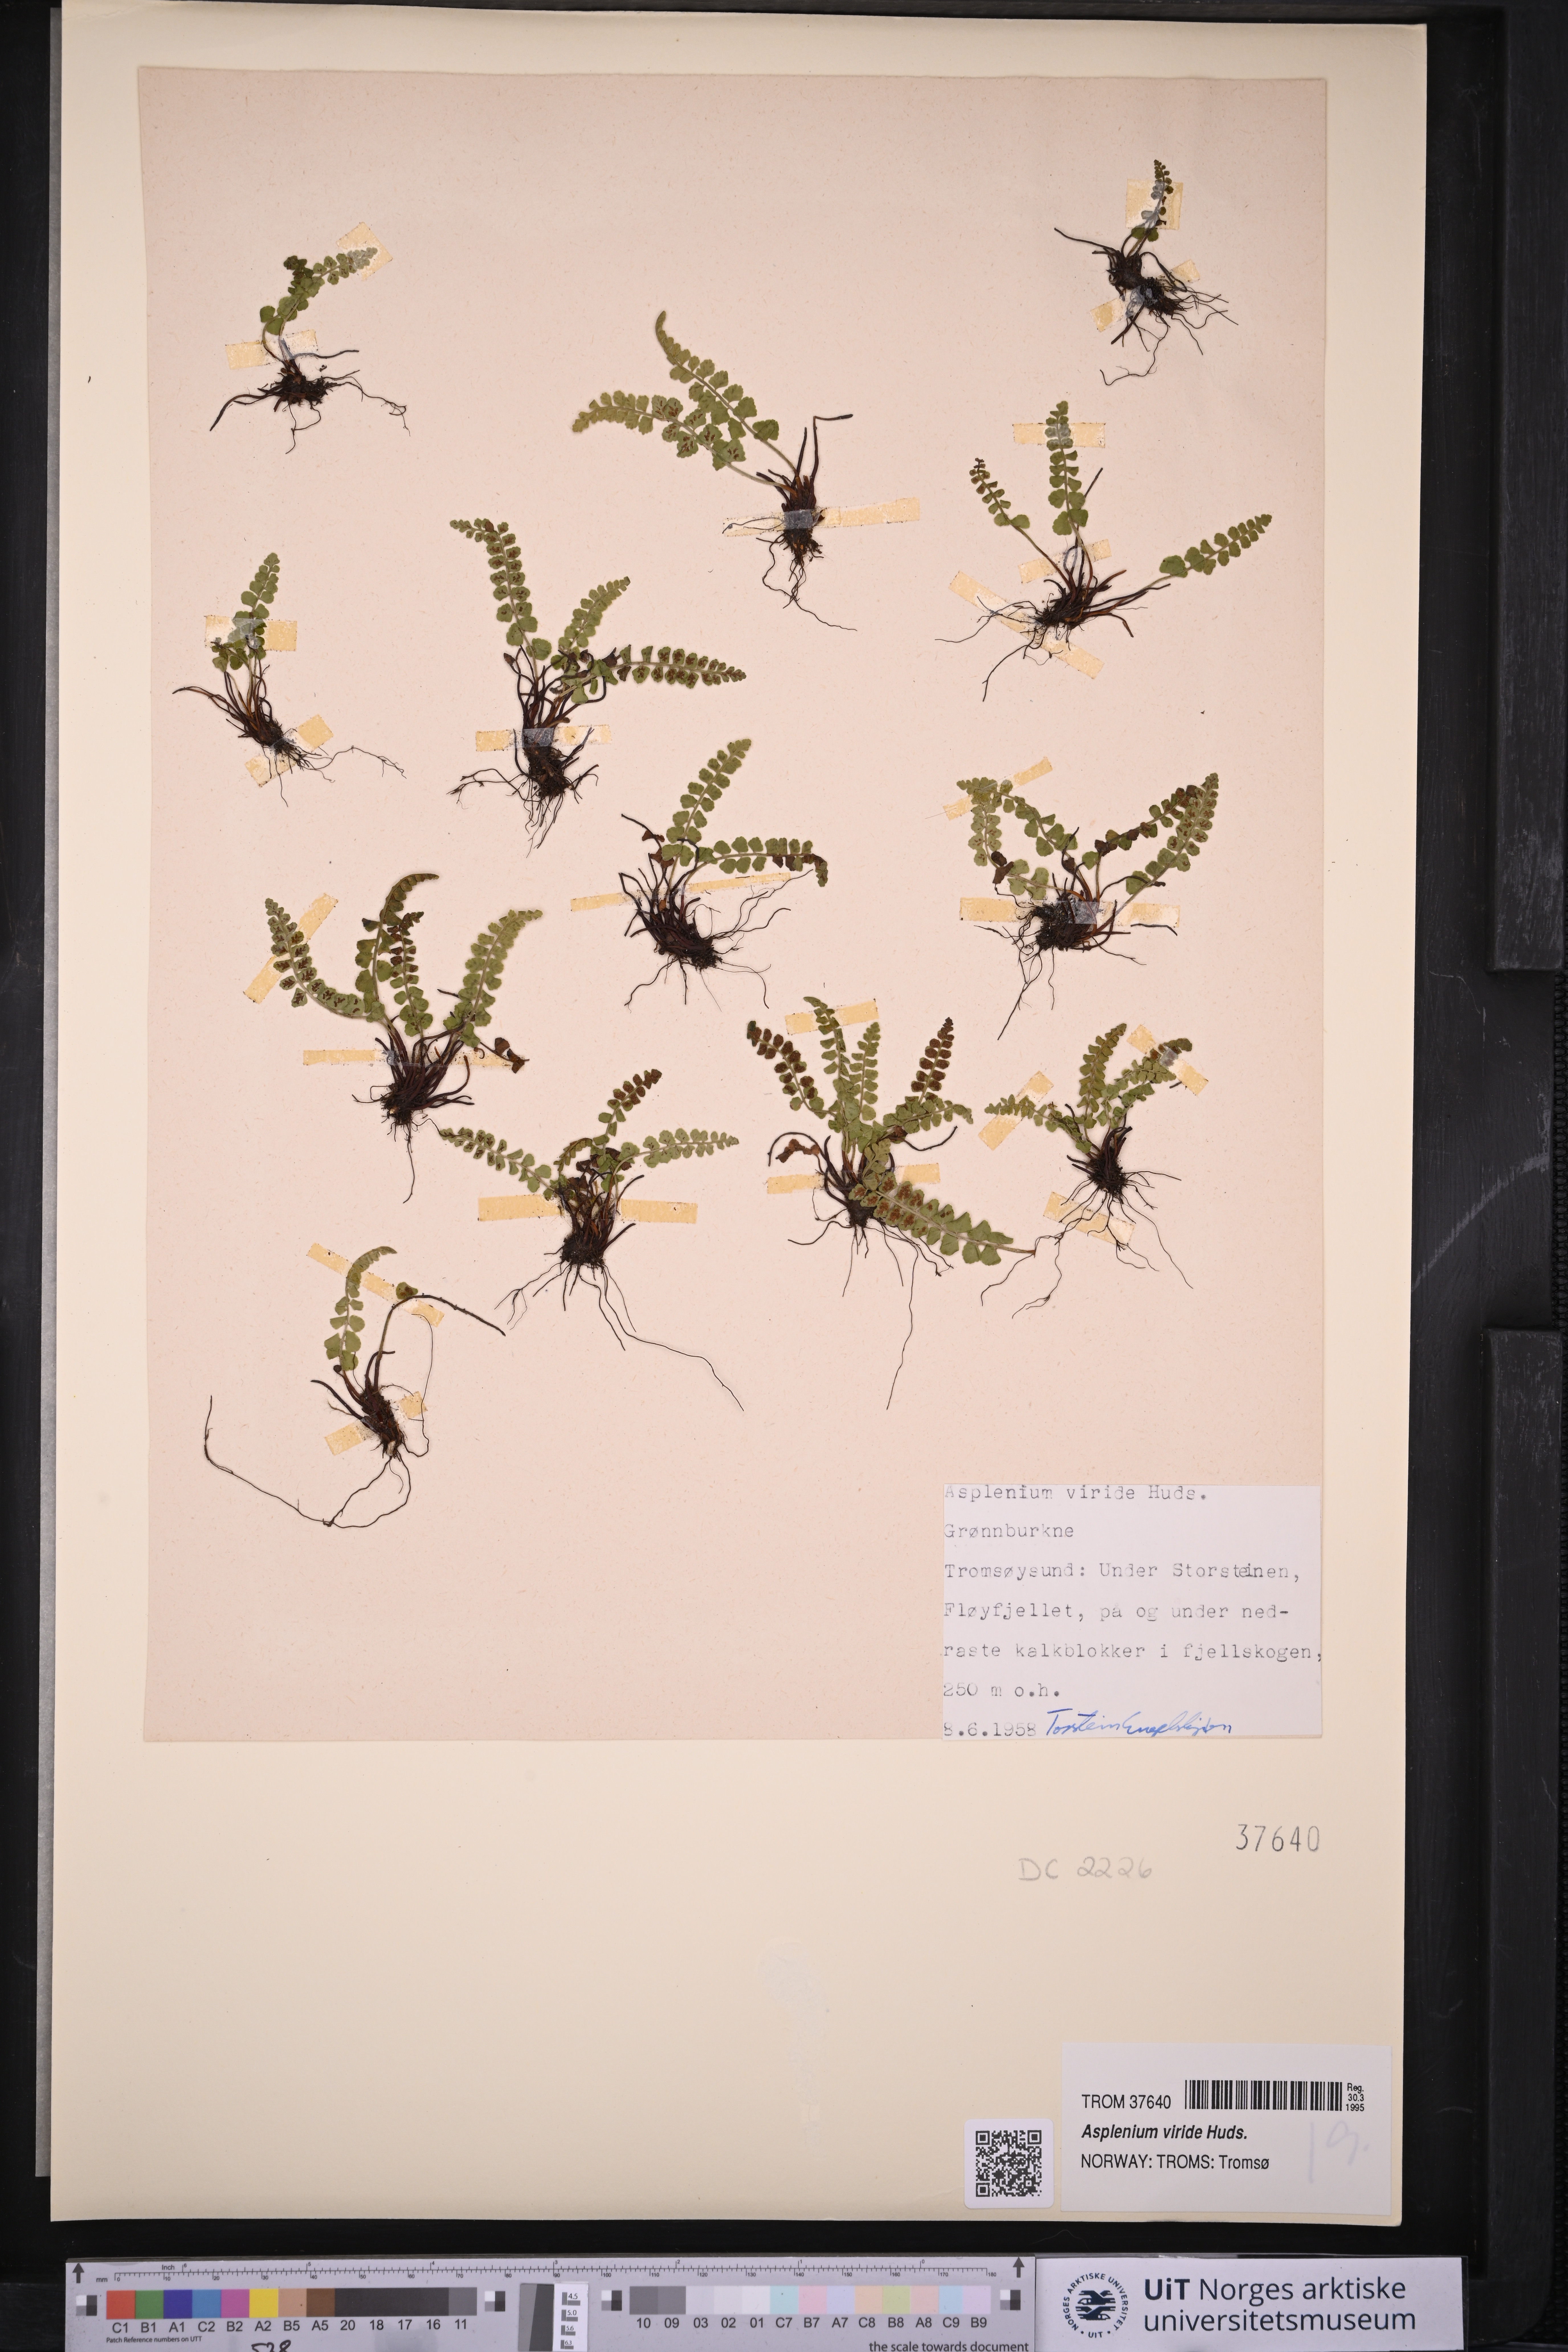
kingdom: Plantae
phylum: Tracheophyta
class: Polypodiopsida
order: Polypodiales
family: Aspleniaceae
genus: Asplenium
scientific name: Asplenium viride
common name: Green spleenwort
